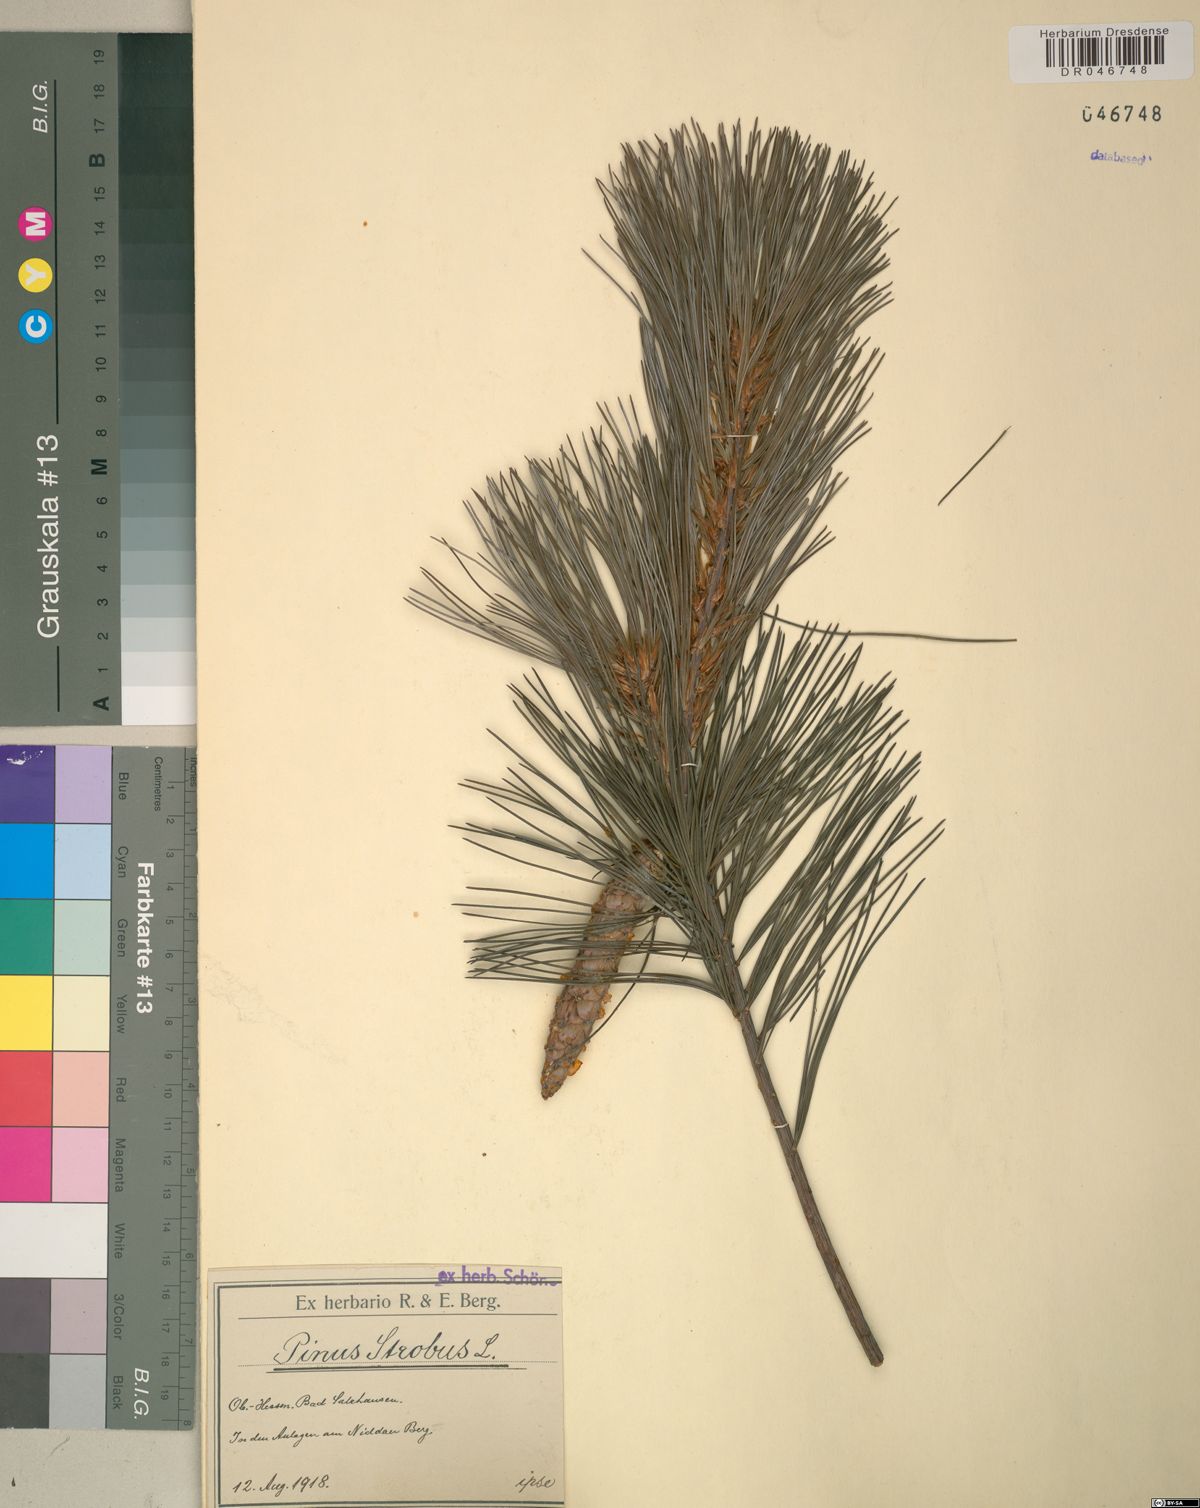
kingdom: Plantae
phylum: Tracheophyta
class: Pinopsida
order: Pinales
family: Pinaceae
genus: Pinus
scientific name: Pinus strobus
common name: Weymouth pine
